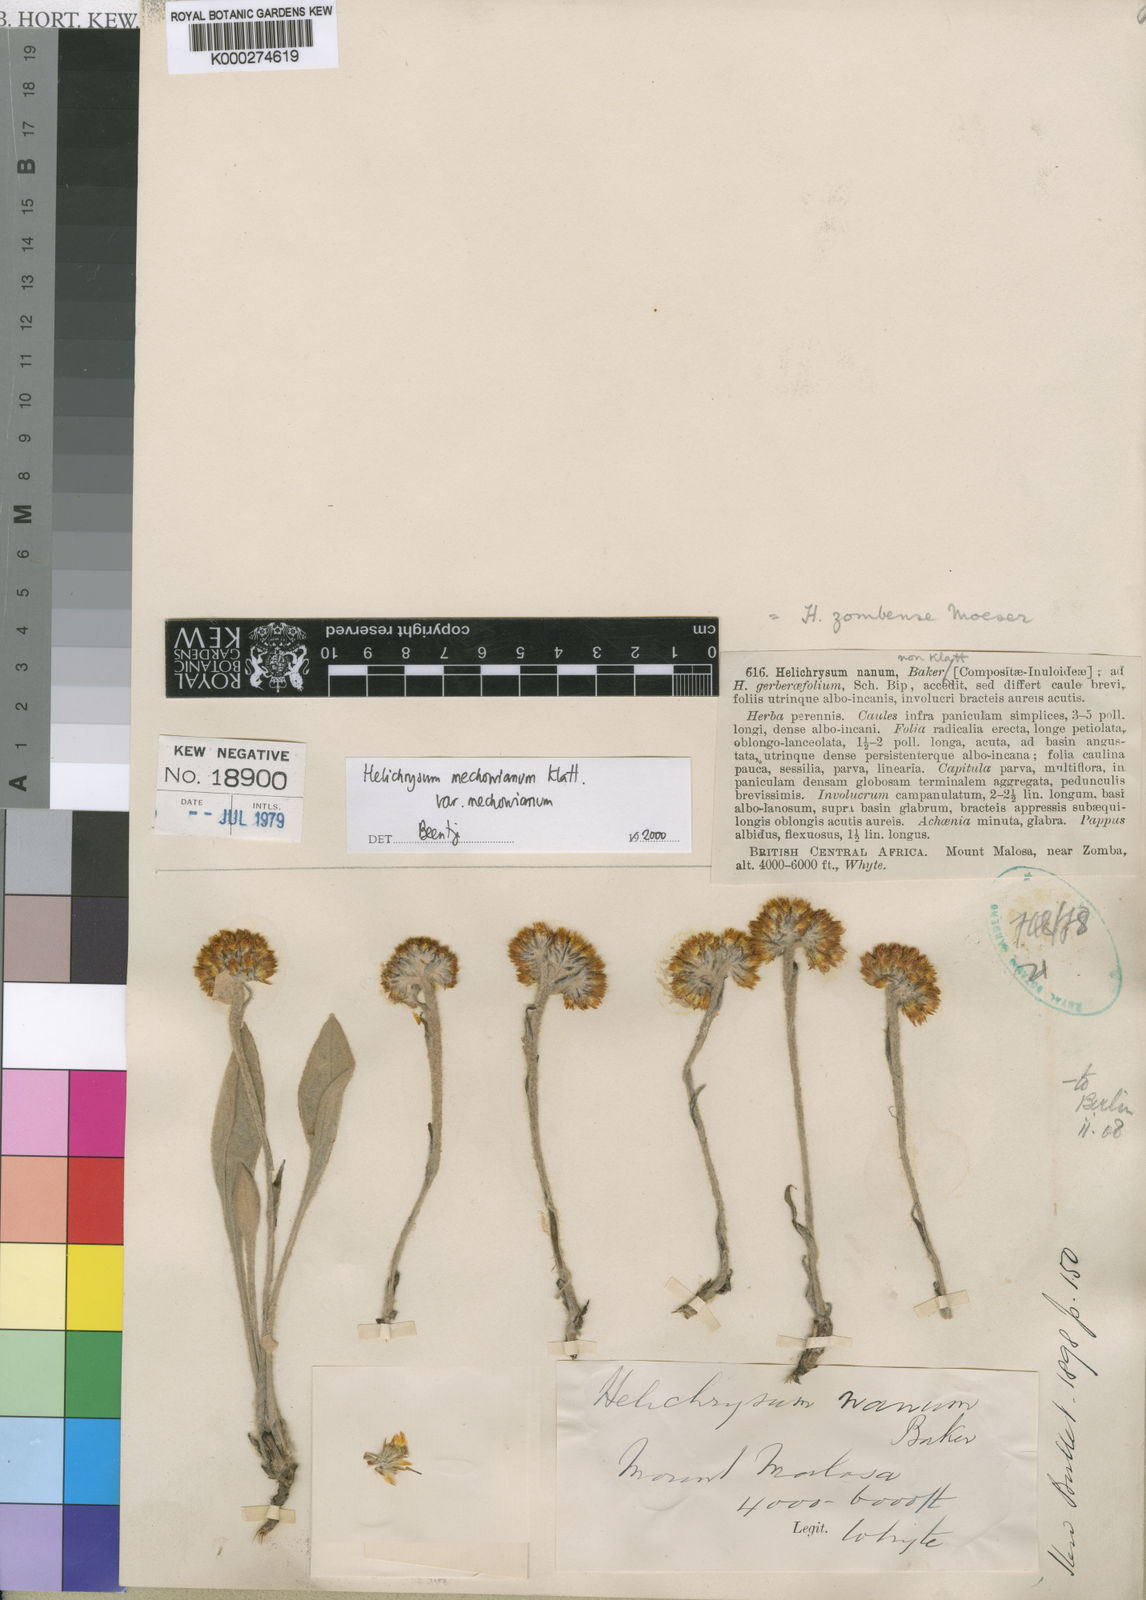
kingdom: Plantae
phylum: Tracheophyta
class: Magnoliopsida
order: Asterales
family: Asteraceae
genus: Helichrysum
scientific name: Helichrysum mechowianum
